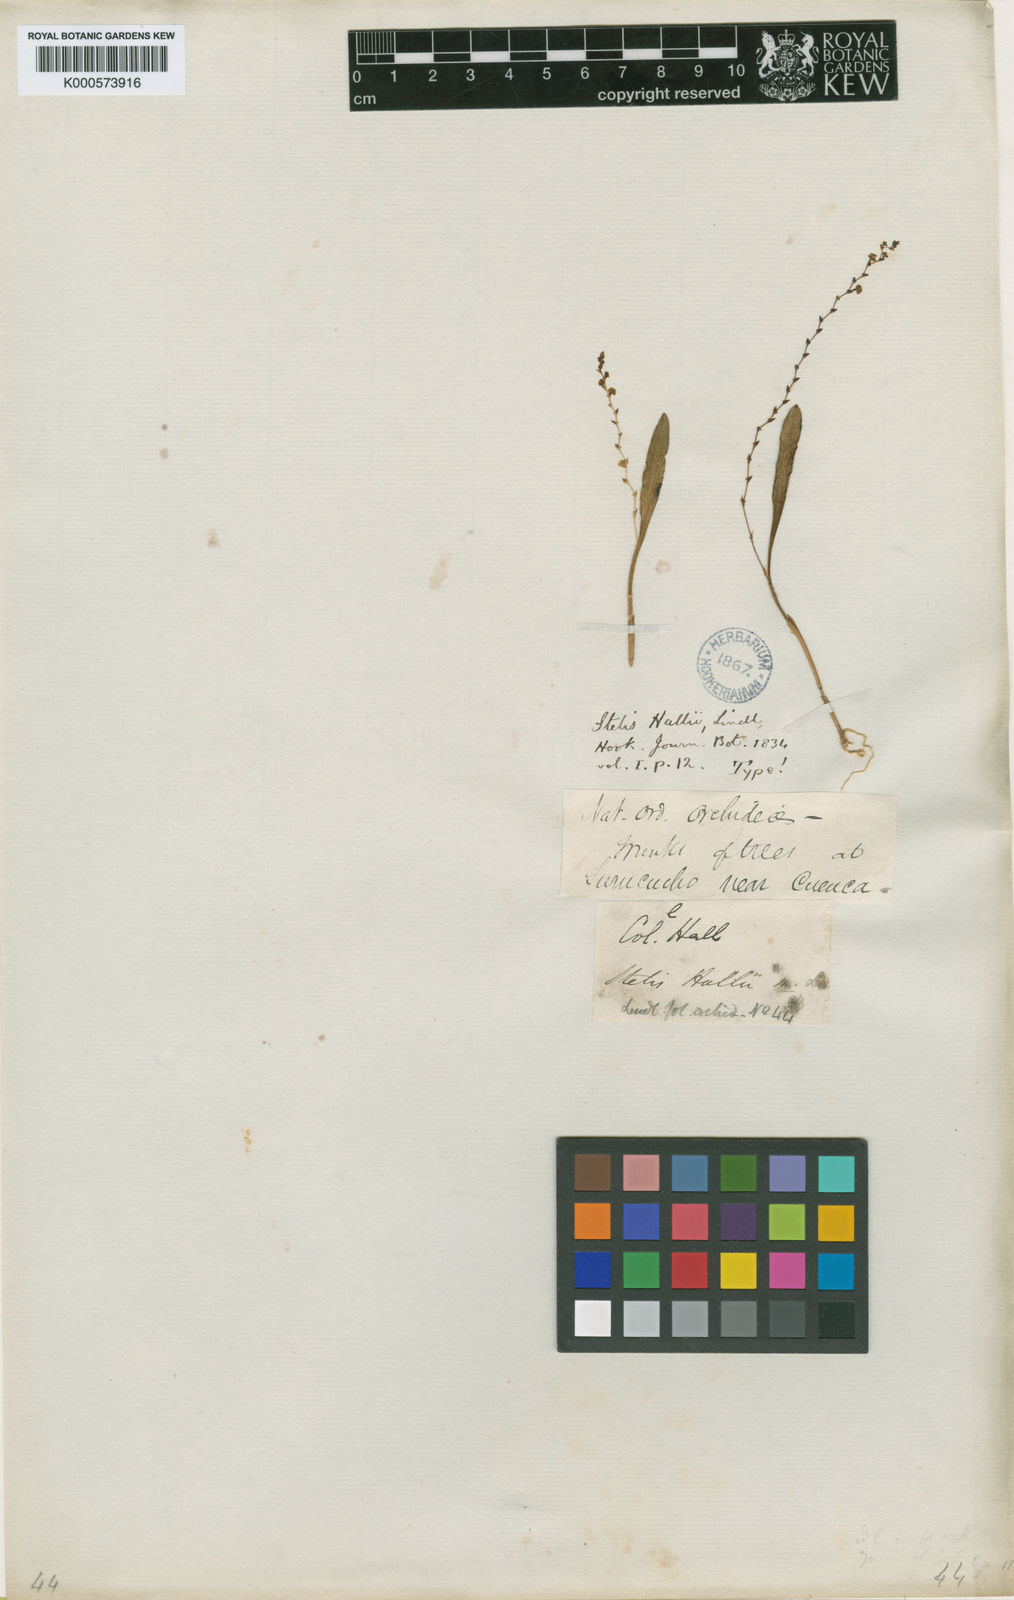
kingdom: Plantae
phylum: Tracheophyta
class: Liliopsida
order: Asparagales
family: Orchidaceae
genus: Stelis
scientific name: Stelis hallii
